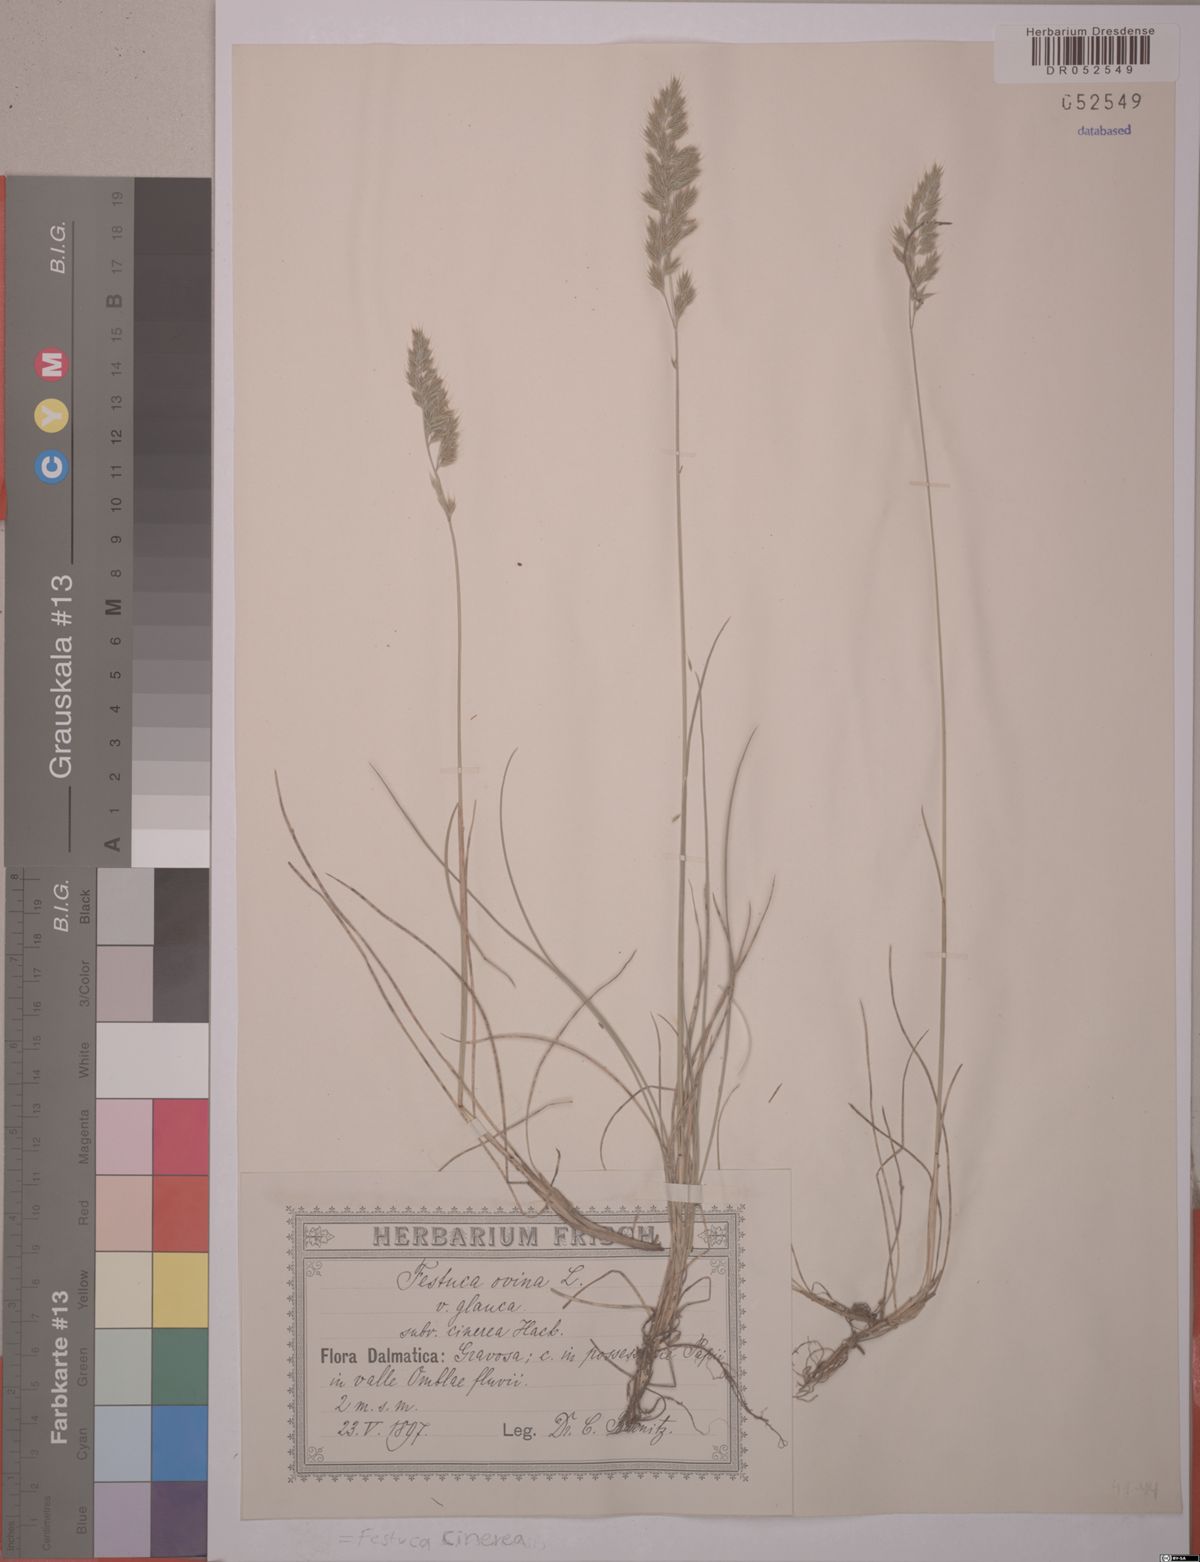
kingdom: Plantae
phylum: Tracheophyta
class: Liliopsida
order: Poales
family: Poaceae
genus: Festuca
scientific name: Festuca cinerea
